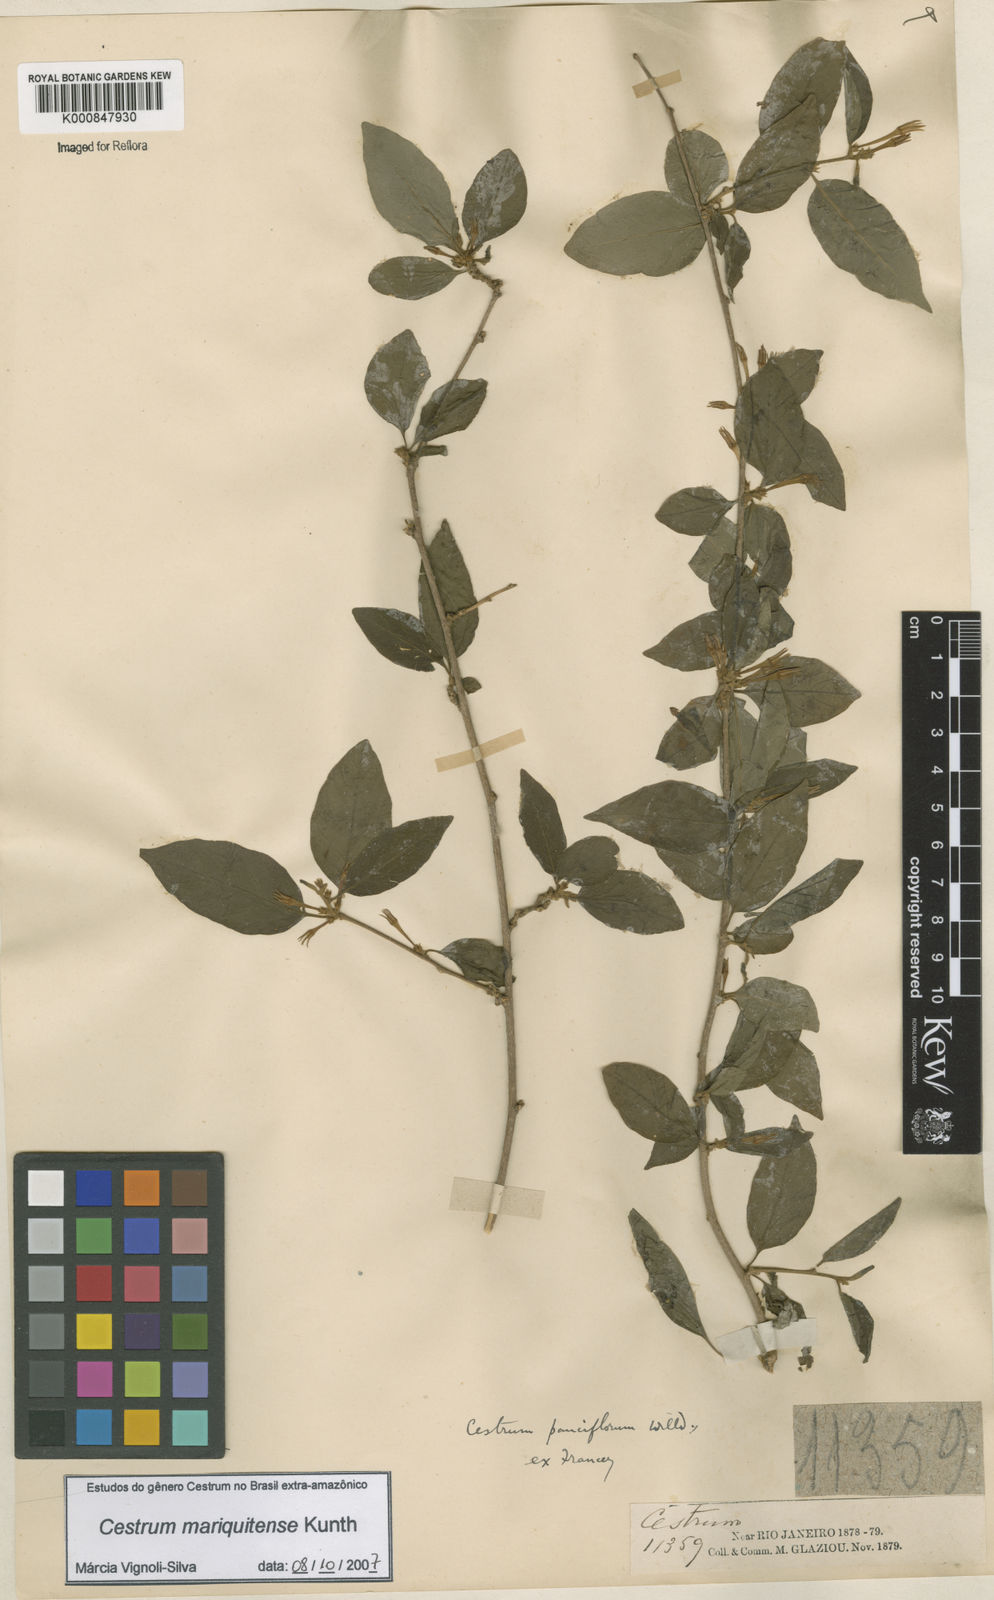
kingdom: Plantae
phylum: Tracheophyta
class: Magnoliopsida
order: Solanales
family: Solanaceae
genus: Cestrum
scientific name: Cestrum mariquitense
